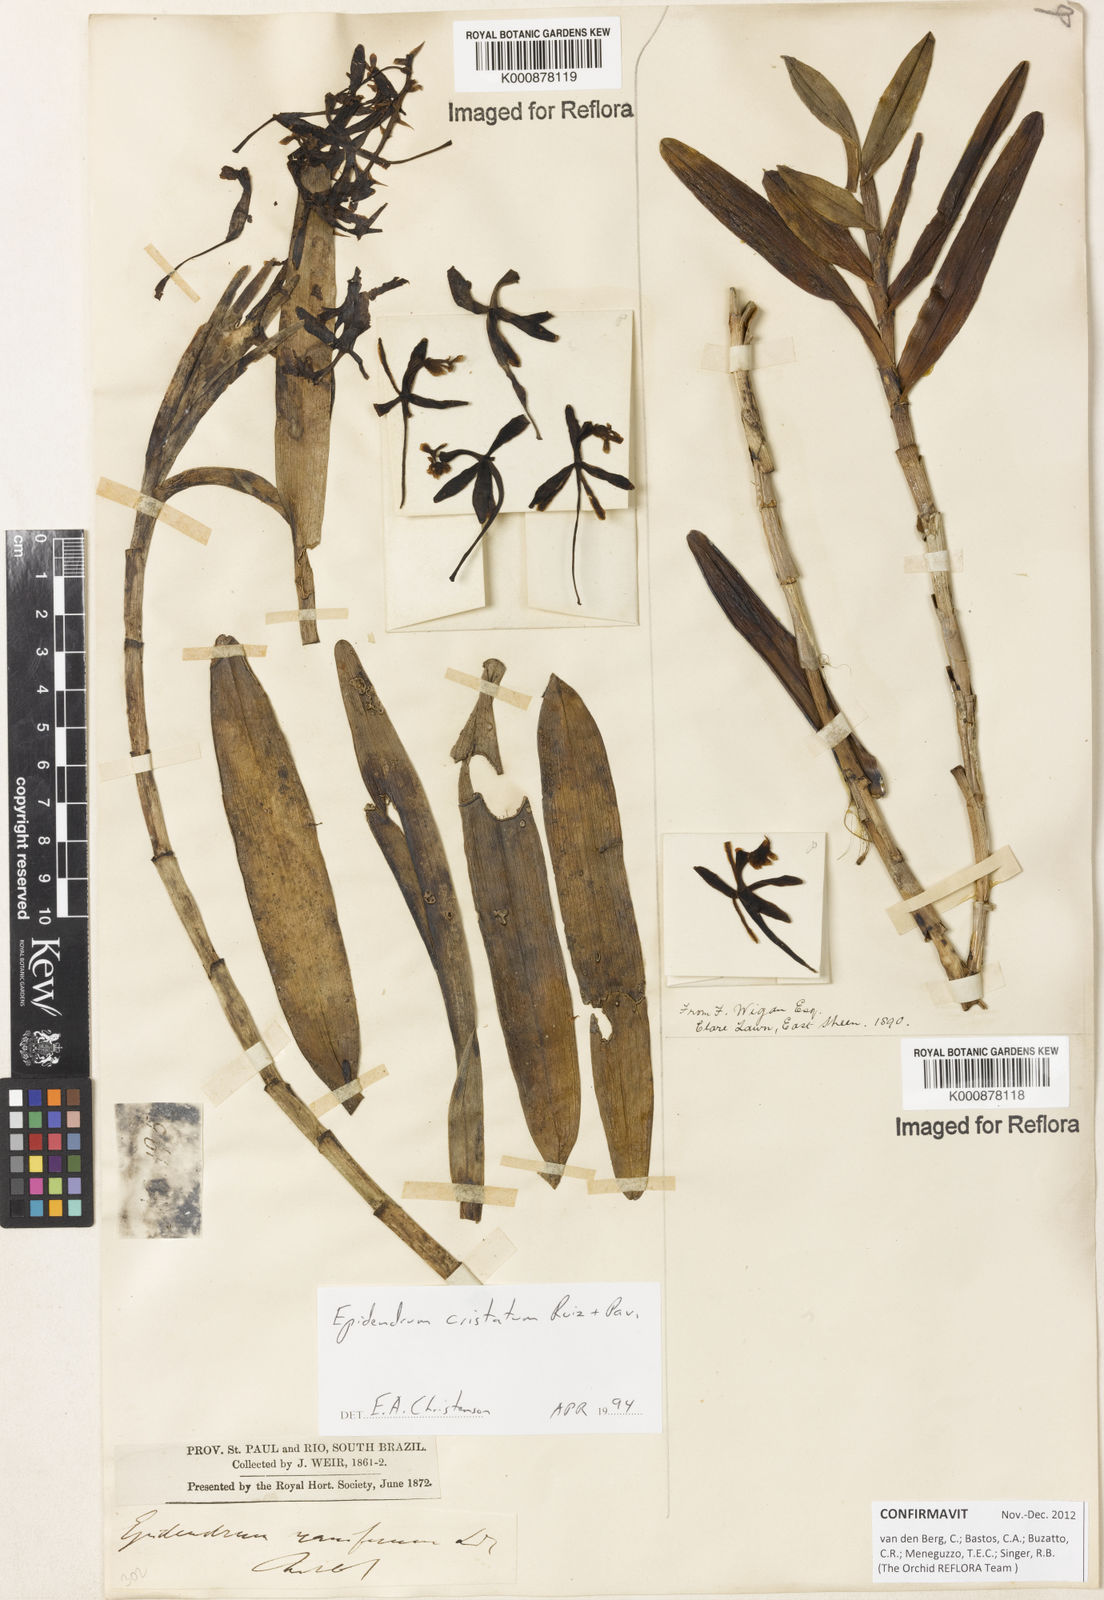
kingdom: Plantae
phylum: Tracheophyta
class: Liliopsida
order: Asparagales
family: Orchidaceae
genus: Epidendrum
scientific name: Epidendrum cristatum
